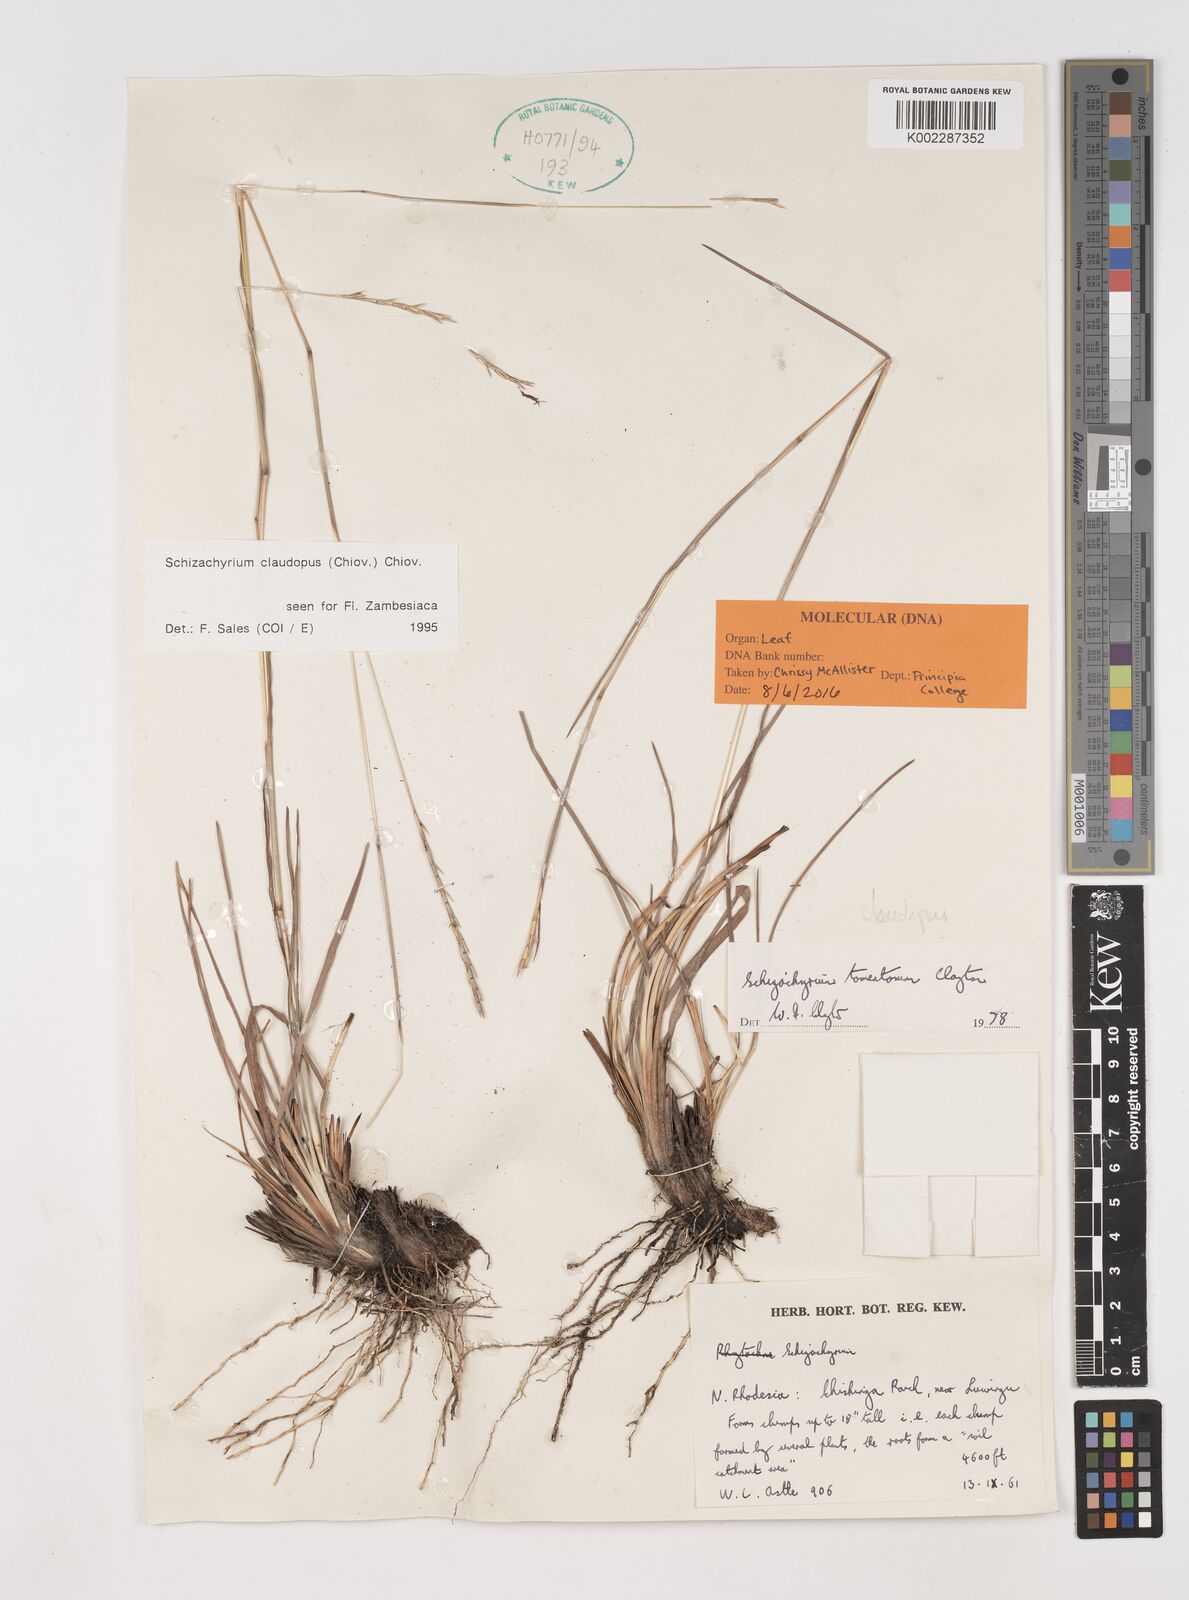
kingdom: Plantae
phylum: Tracheophyta
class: Liliopsida
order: Poales
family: Poaceae
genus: Schizachyrium
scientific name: Schizachyrium claudopus
